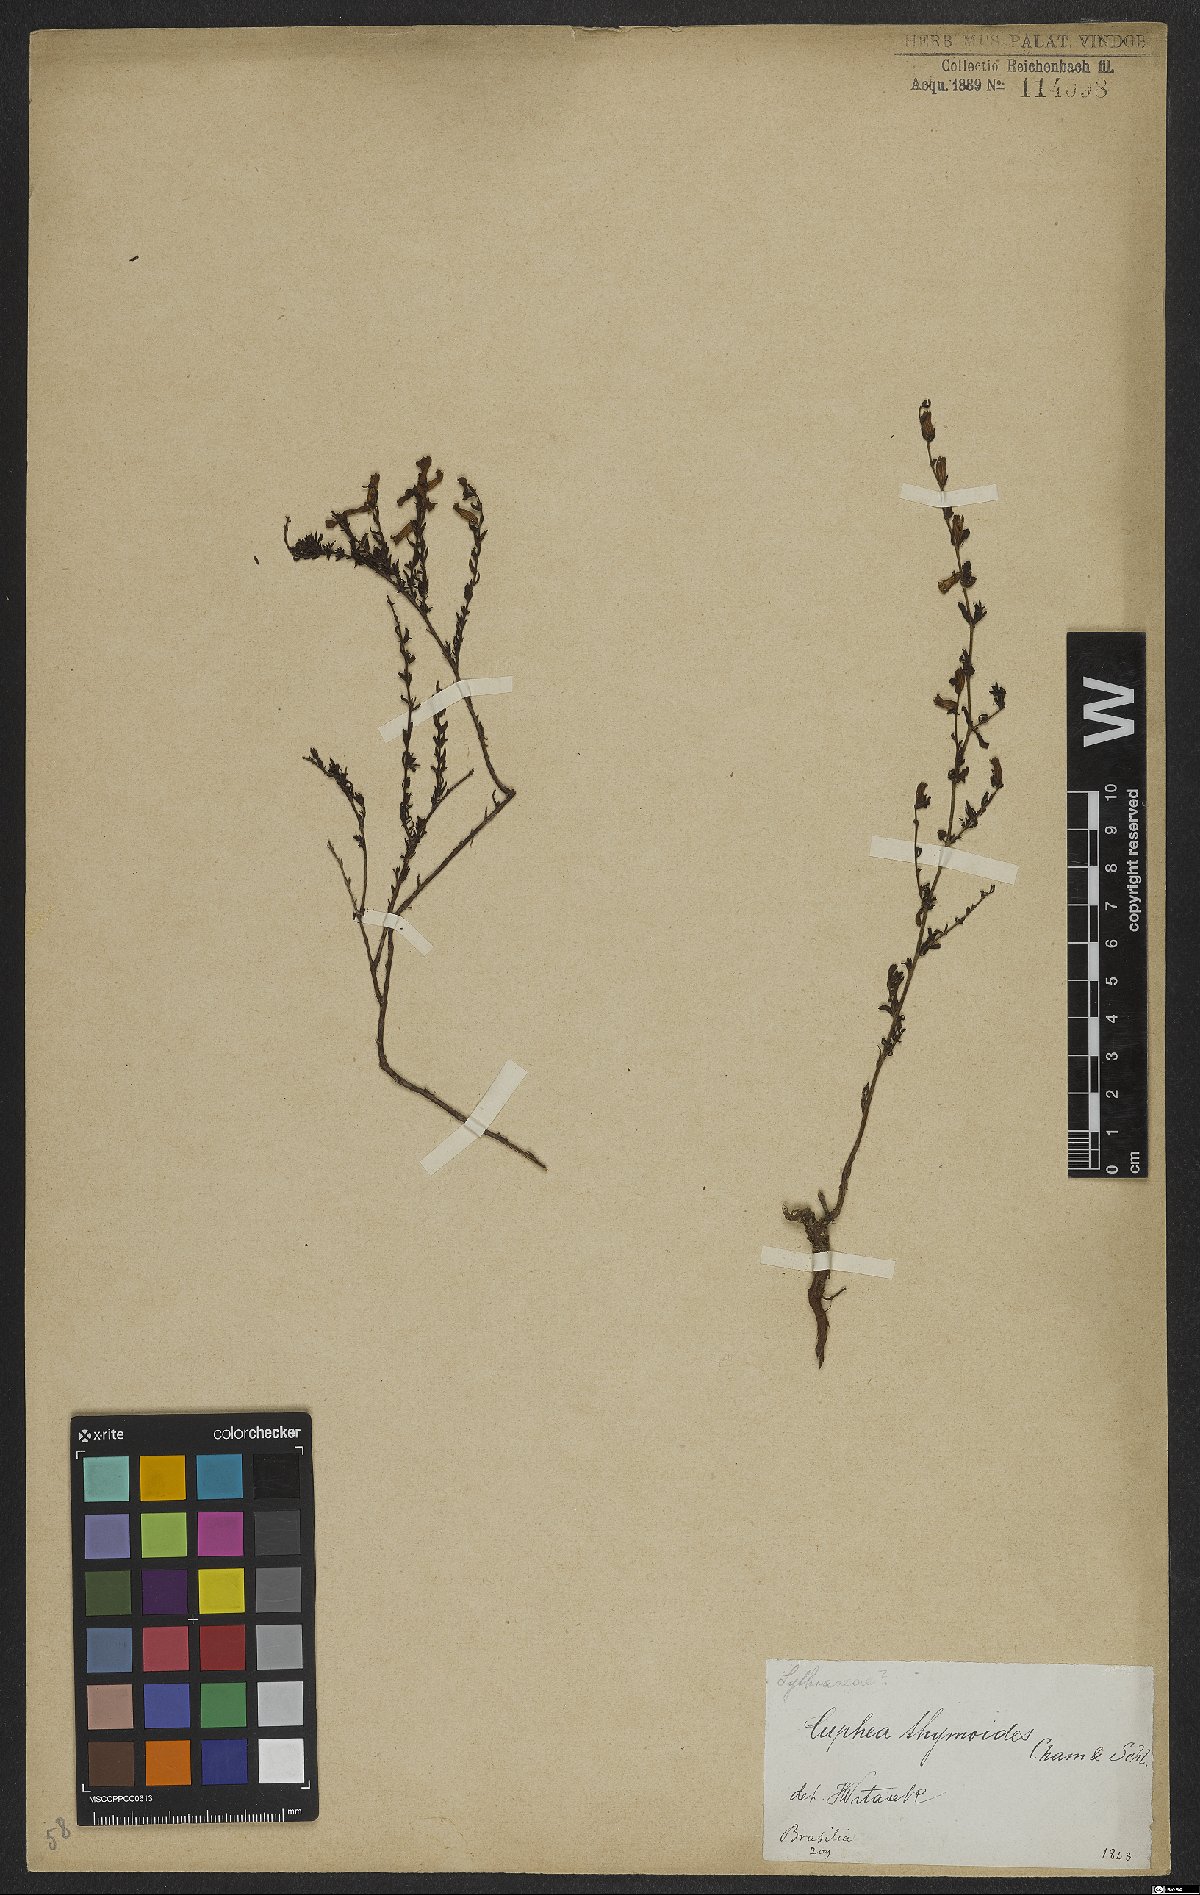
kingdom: Plantae
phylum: Tracheophyta
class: Magnoliopsida
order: Myrtales
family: Lythraceae
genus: Cuphea
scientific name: Cuphea thymoides
